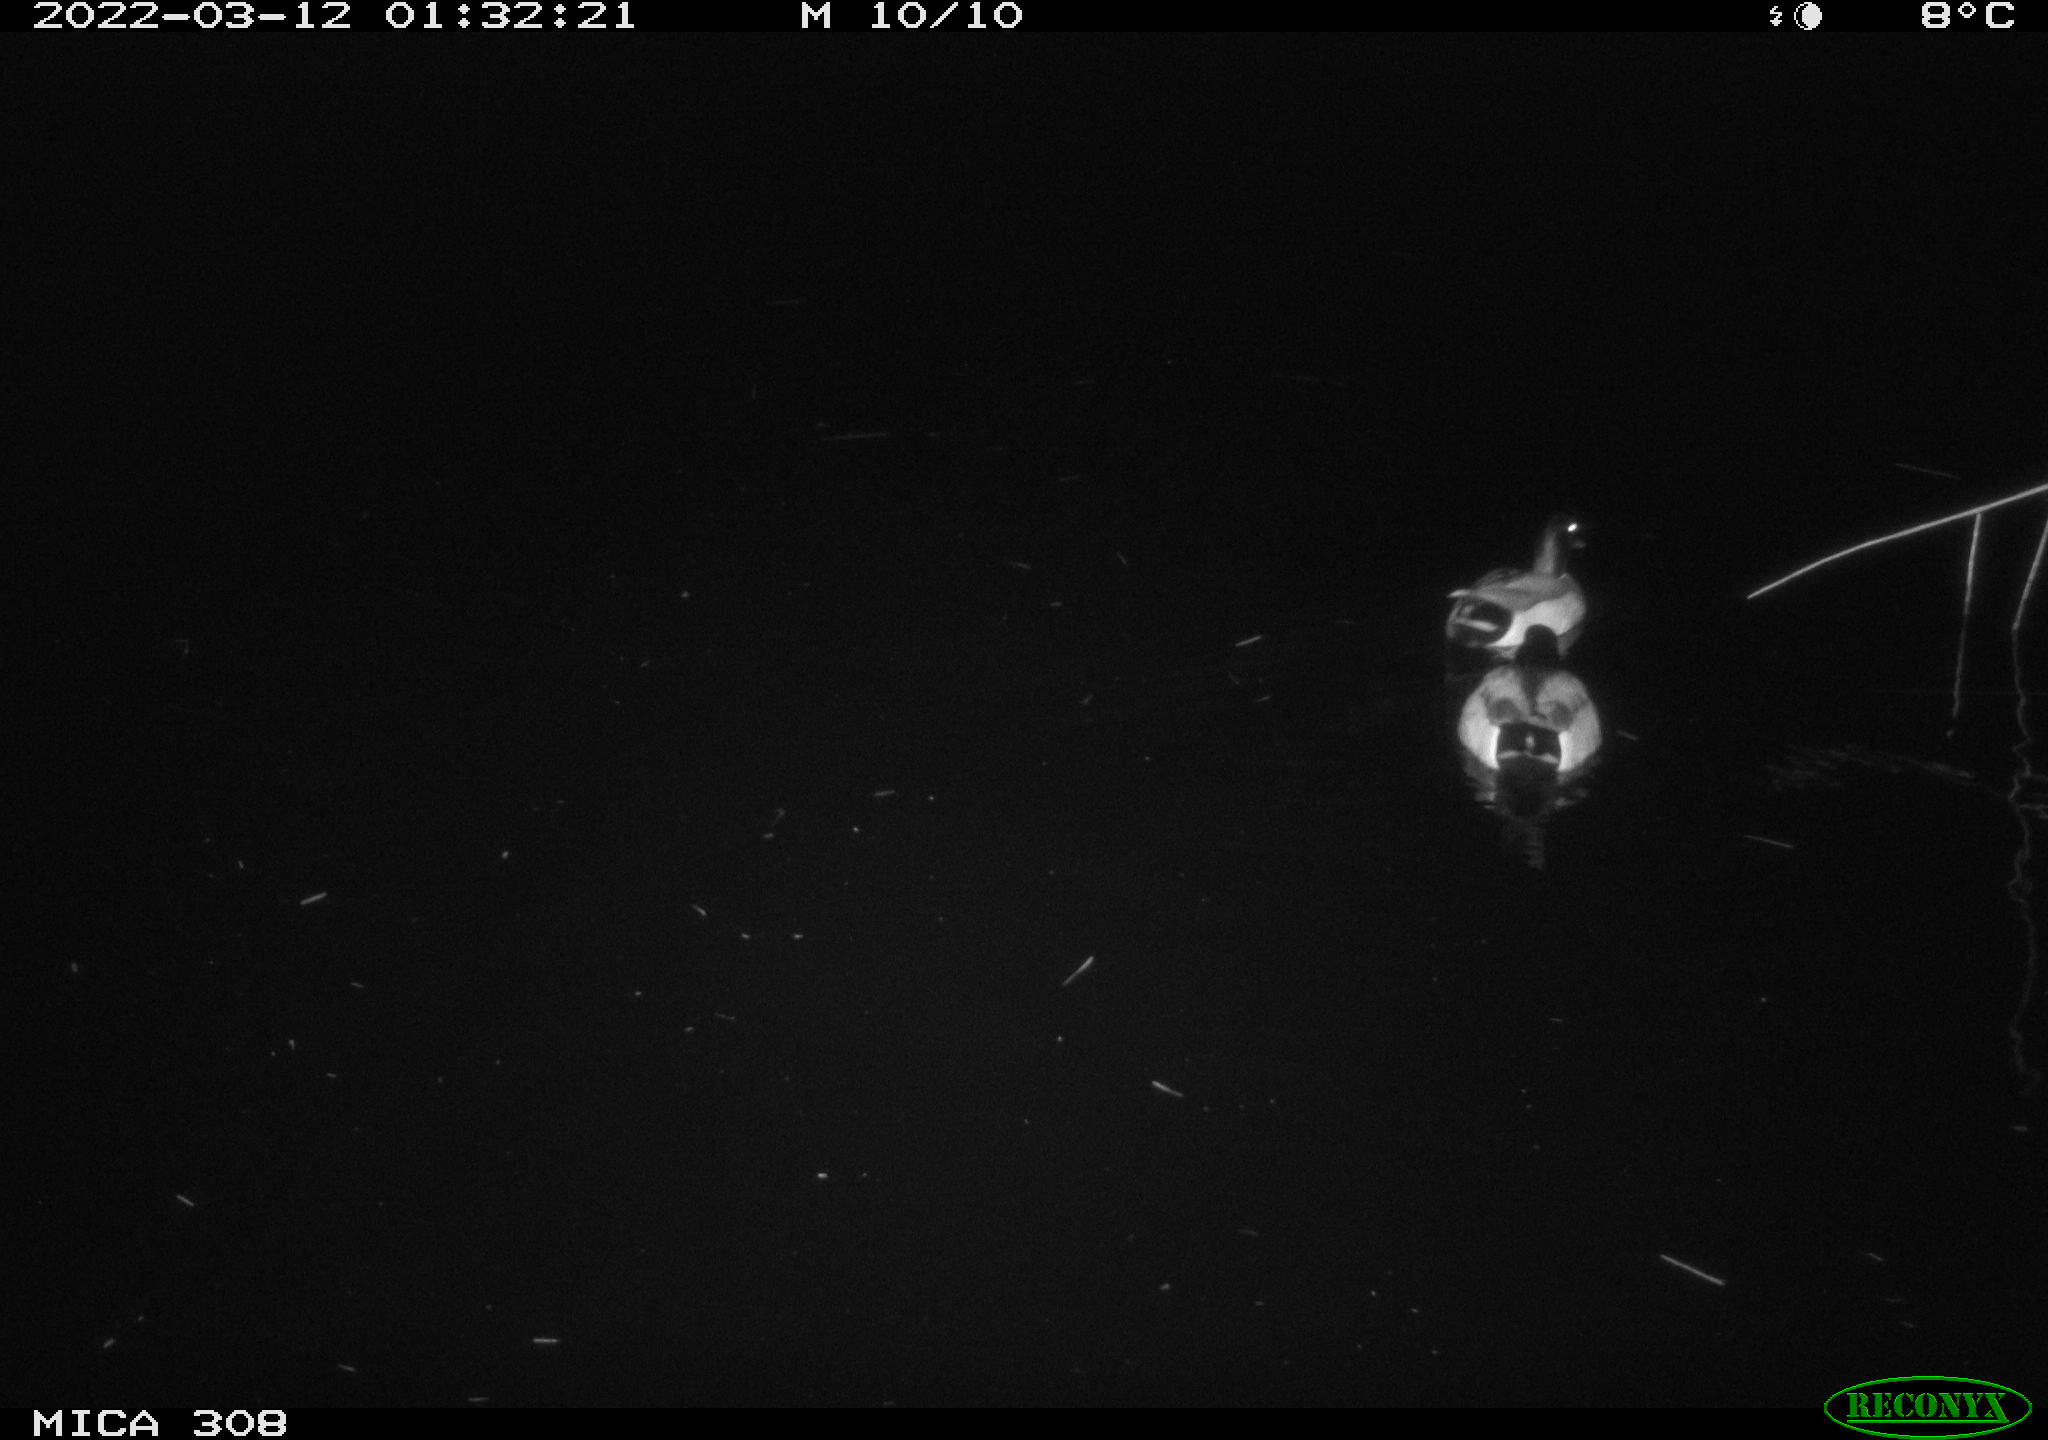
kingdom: Animalia
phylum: Chordata
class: Aves
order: Anseriformes
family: Anatidae
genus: Anas
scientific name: Anas platyrhynchos
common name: Mallard
